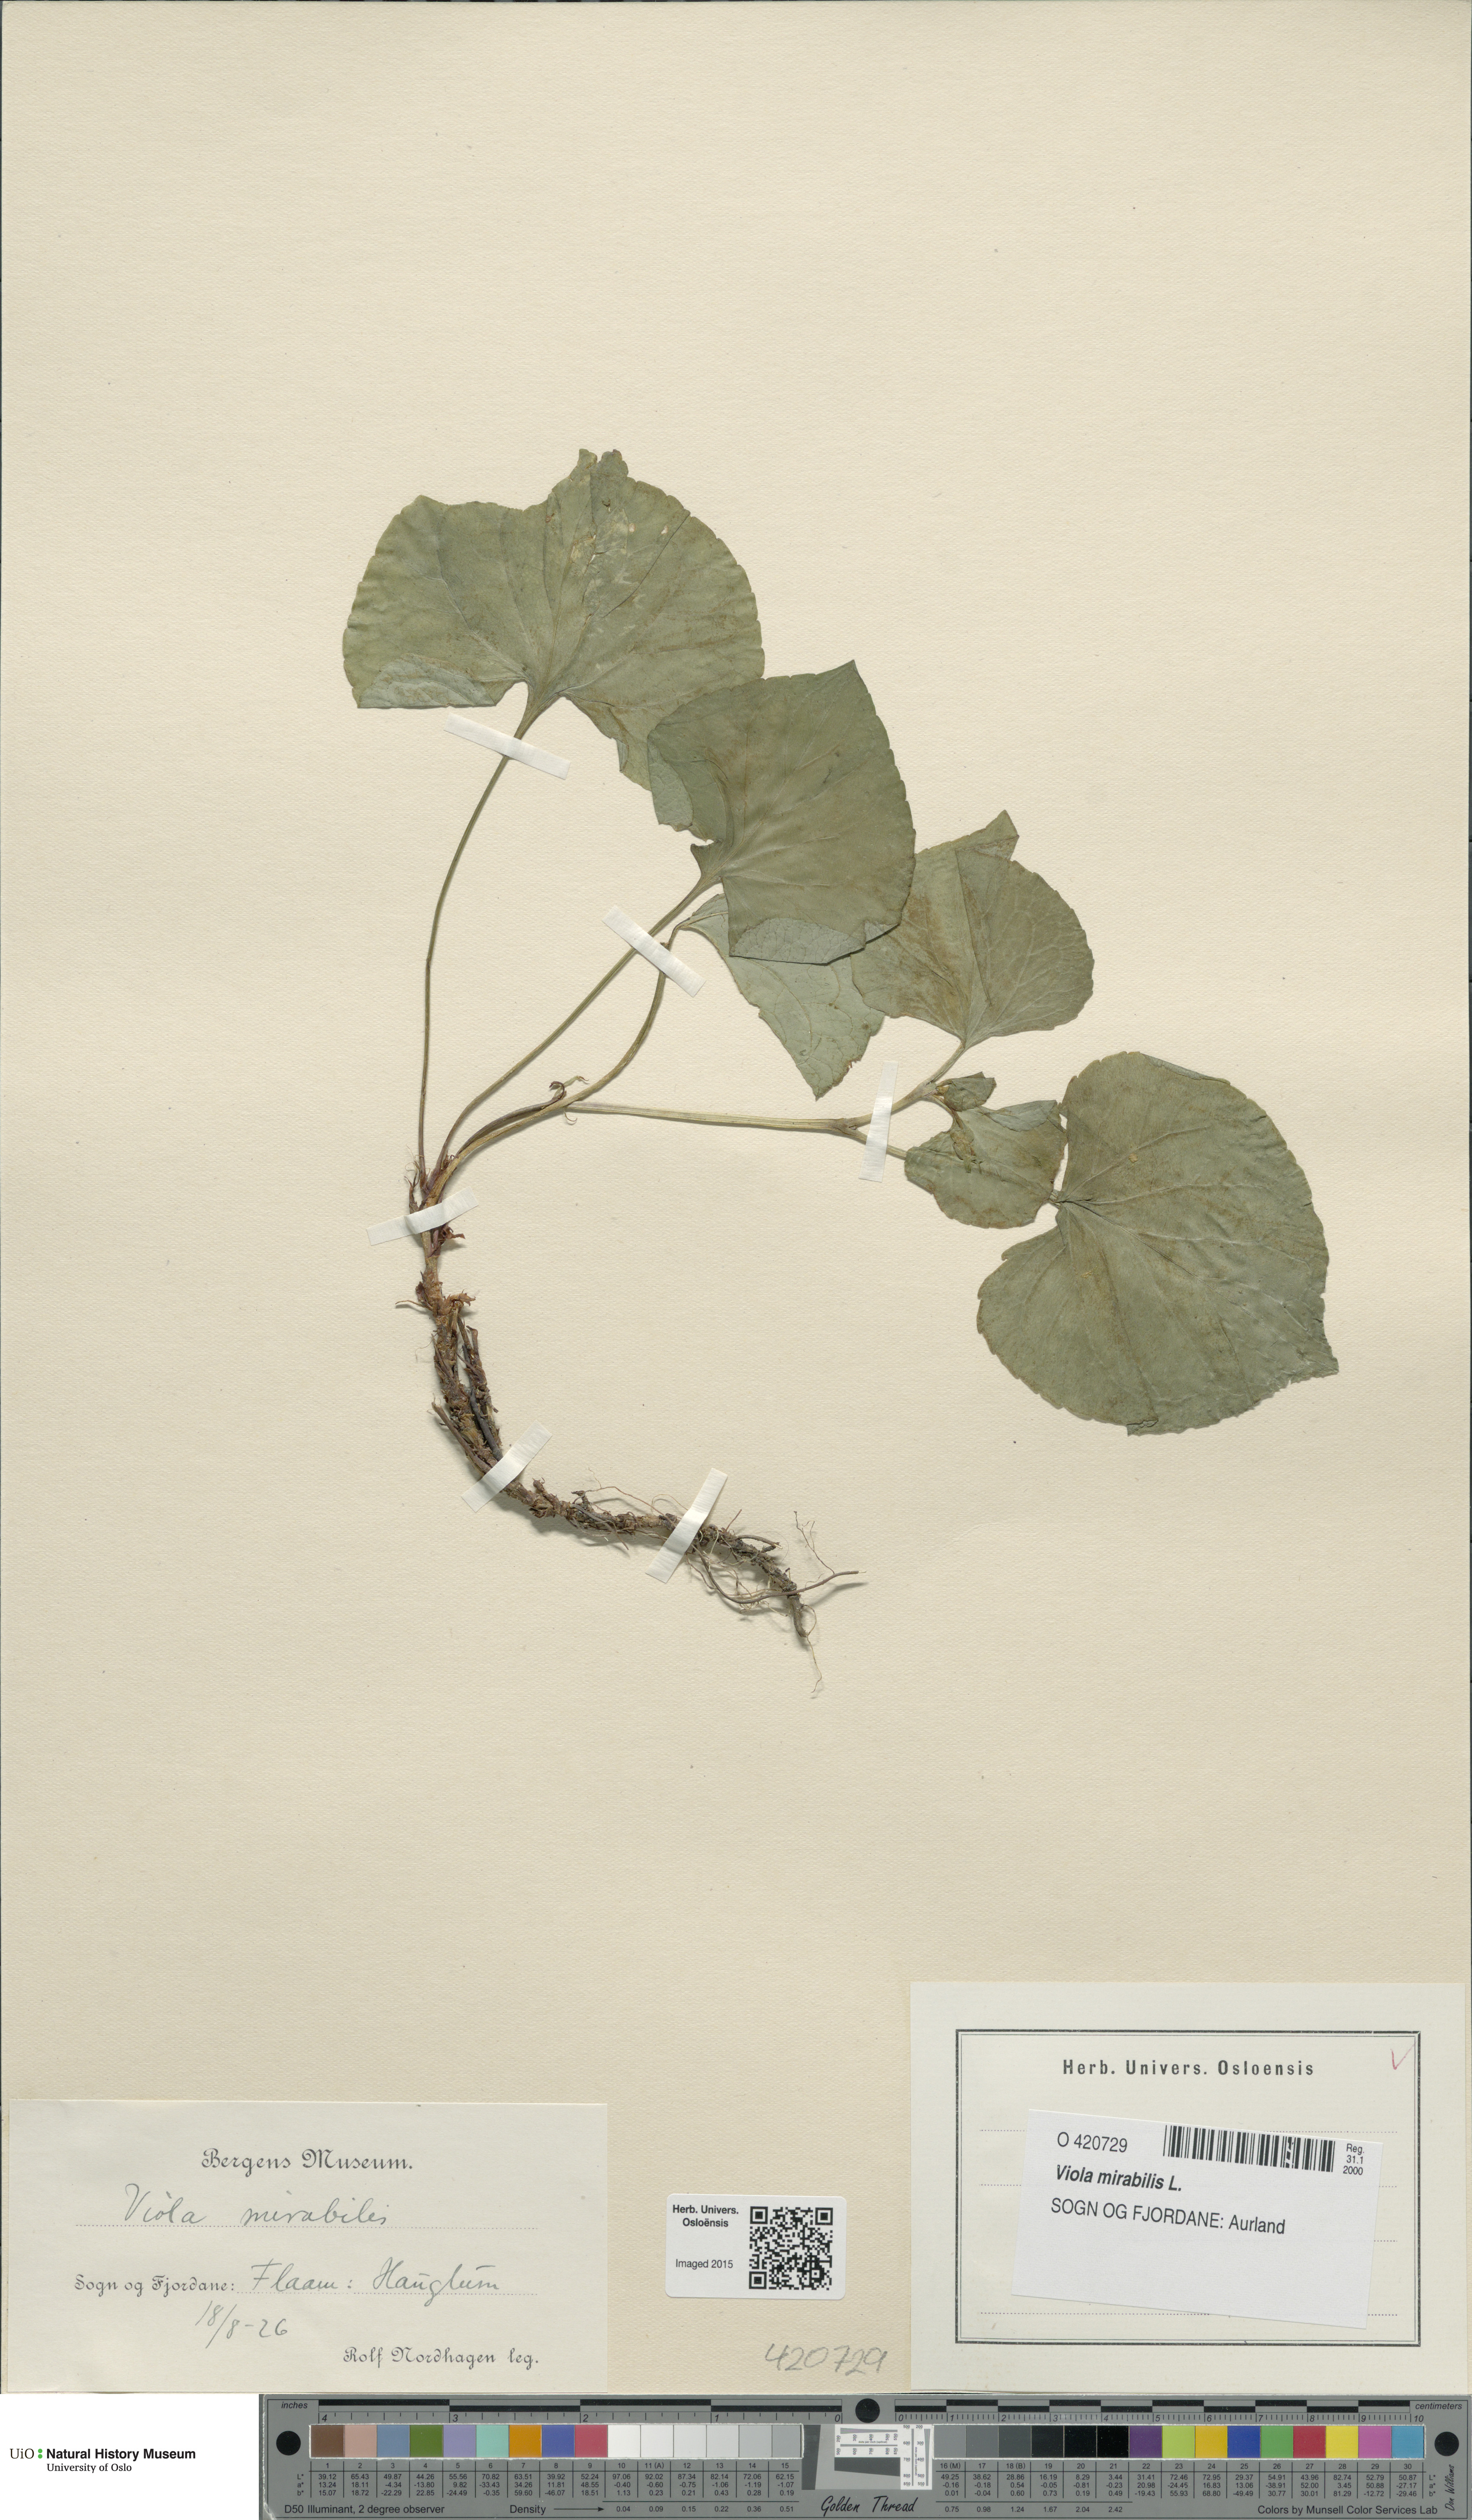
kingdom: Plantae
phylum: Tracheophyta
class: Magnoliopsida
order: Malpighiales
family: Violaceae
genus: Viola
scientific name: Viola mirabilis
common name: Wonder violet
